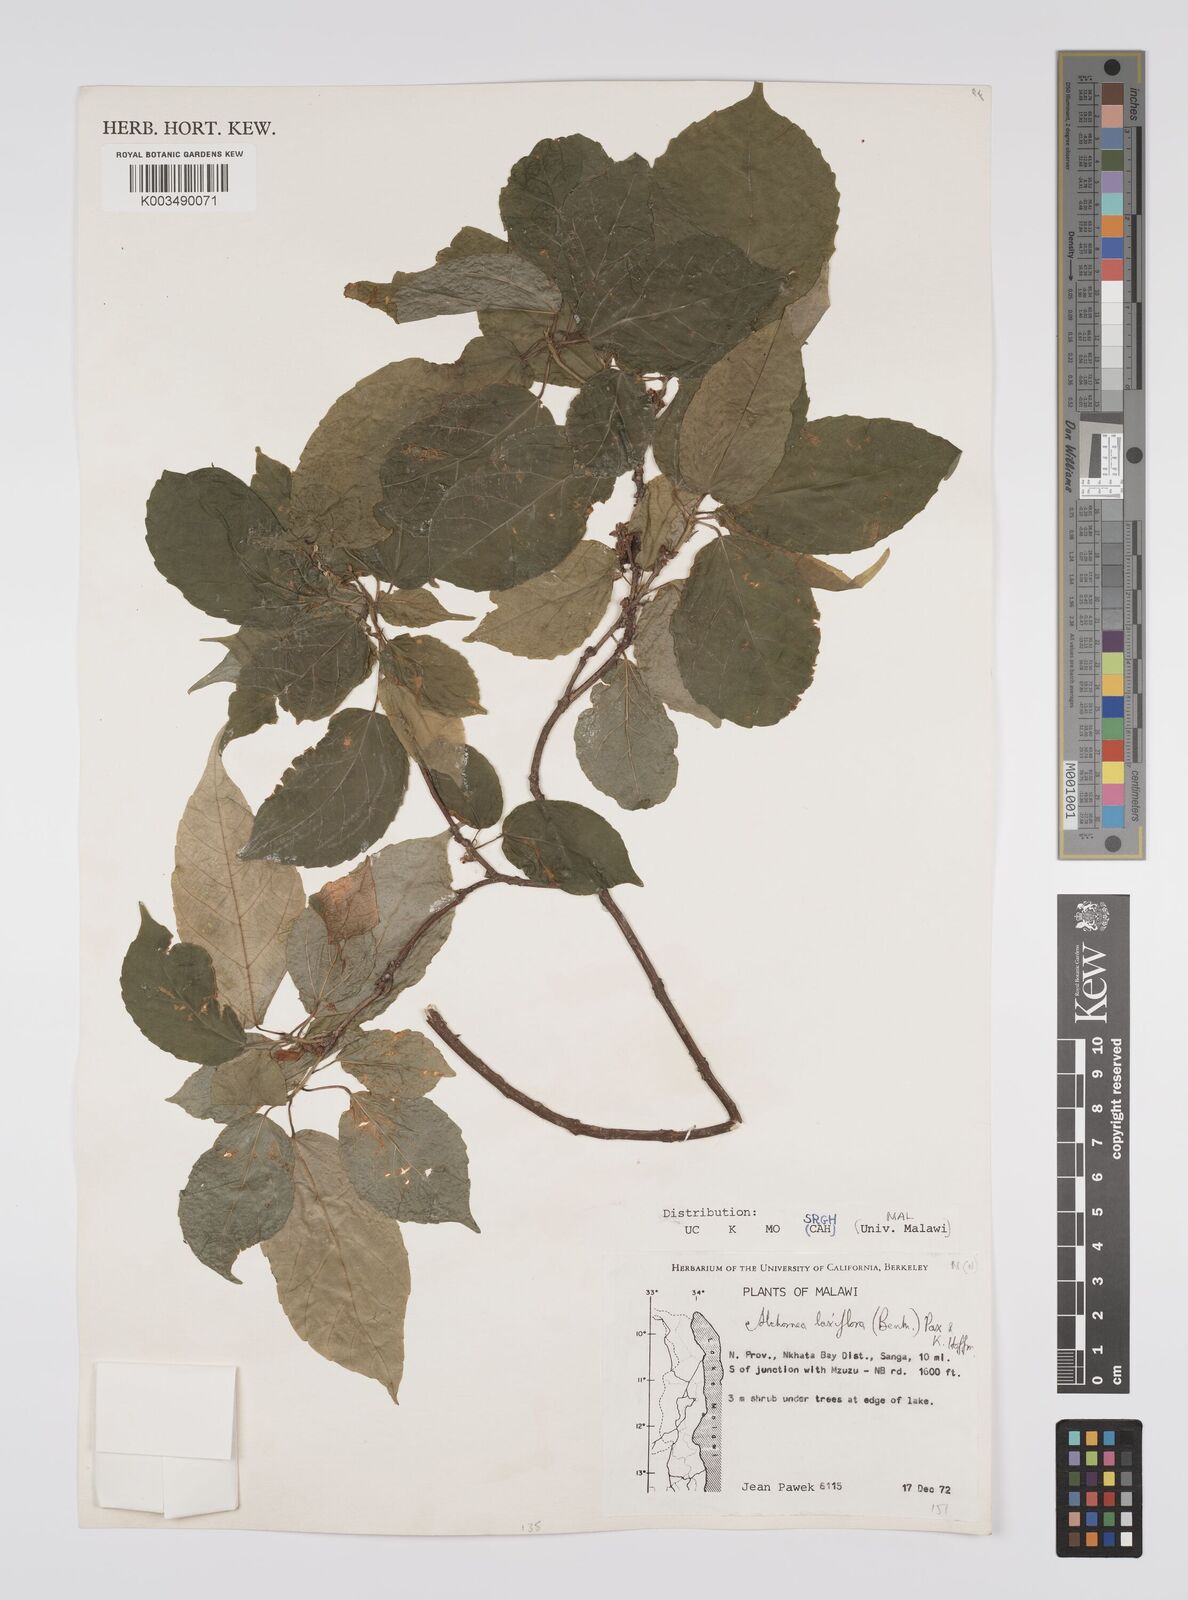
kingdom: Plantae
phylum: Tracheophyta
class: Magnoliopsida
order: Malpighiales
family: Euphorbiaceae
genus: Alchornea
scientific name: Alchornea laxiflora
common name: Lowveld bead-string
